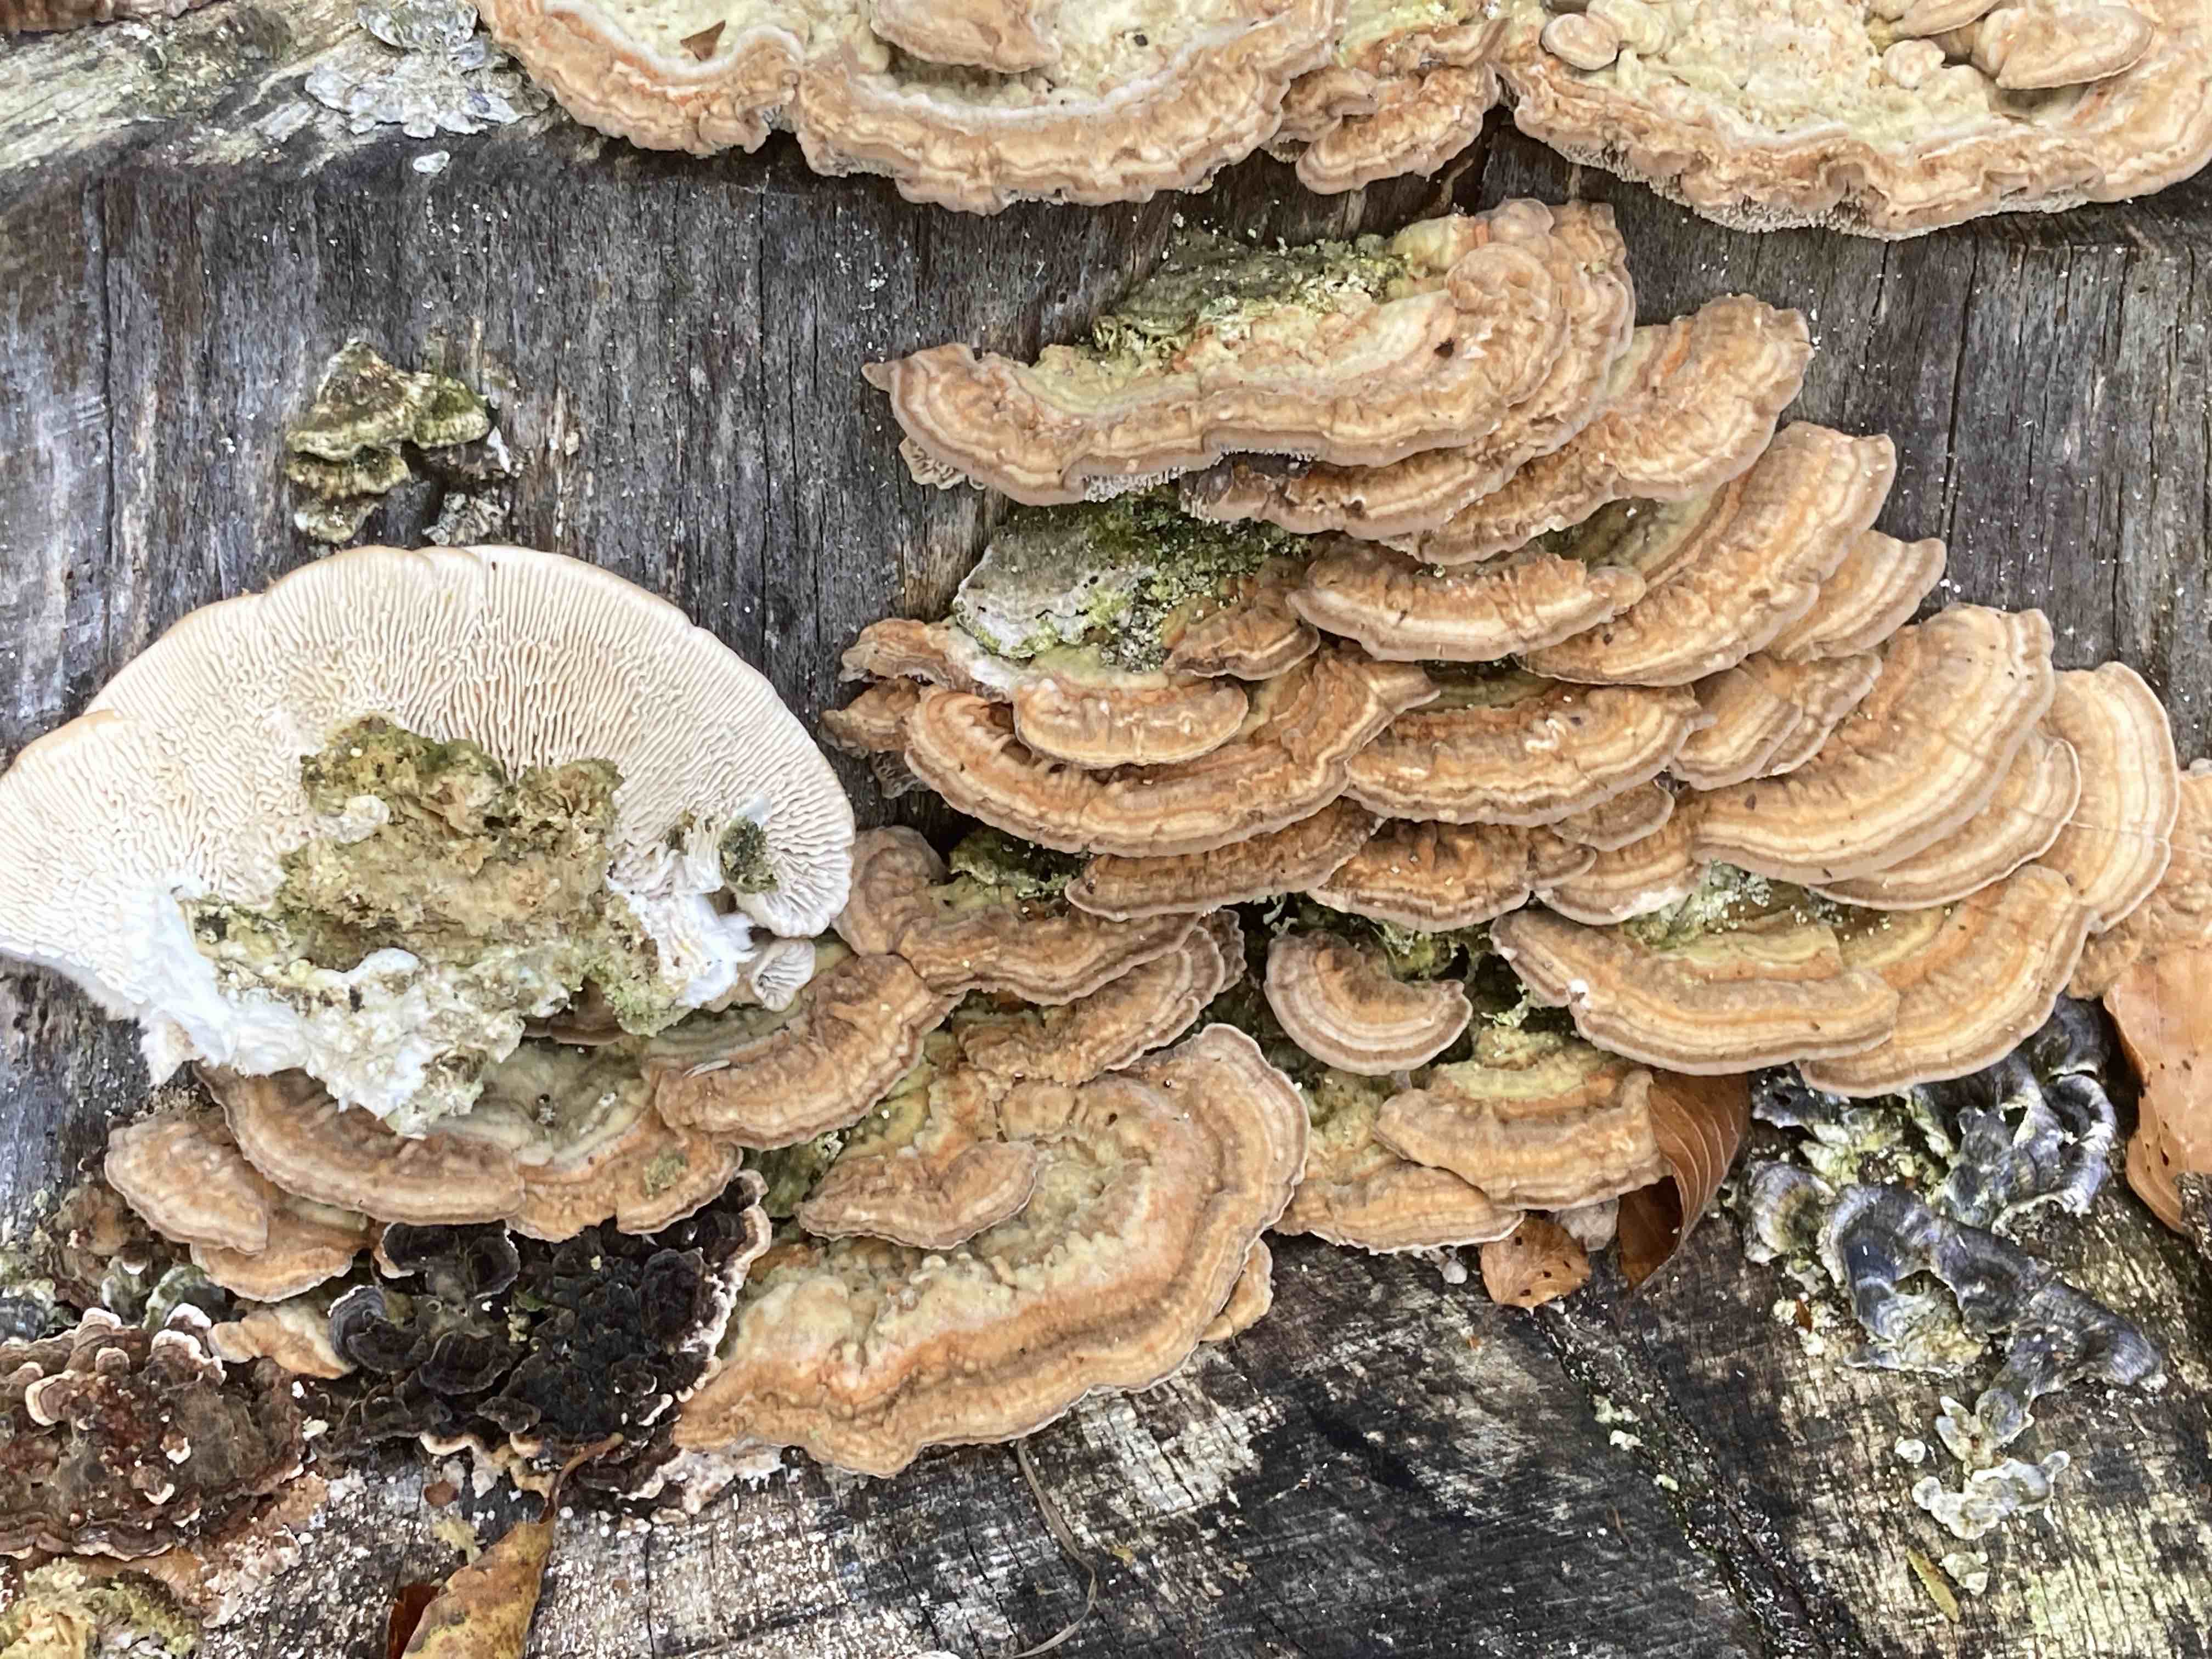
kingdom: Fungi
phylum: Basidiomycota
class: Agaricomycetes
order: Polyporales
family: Polyporaceae
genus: Lenzites
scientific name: Lenzites betulinus
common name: birke-læderporesvamp
